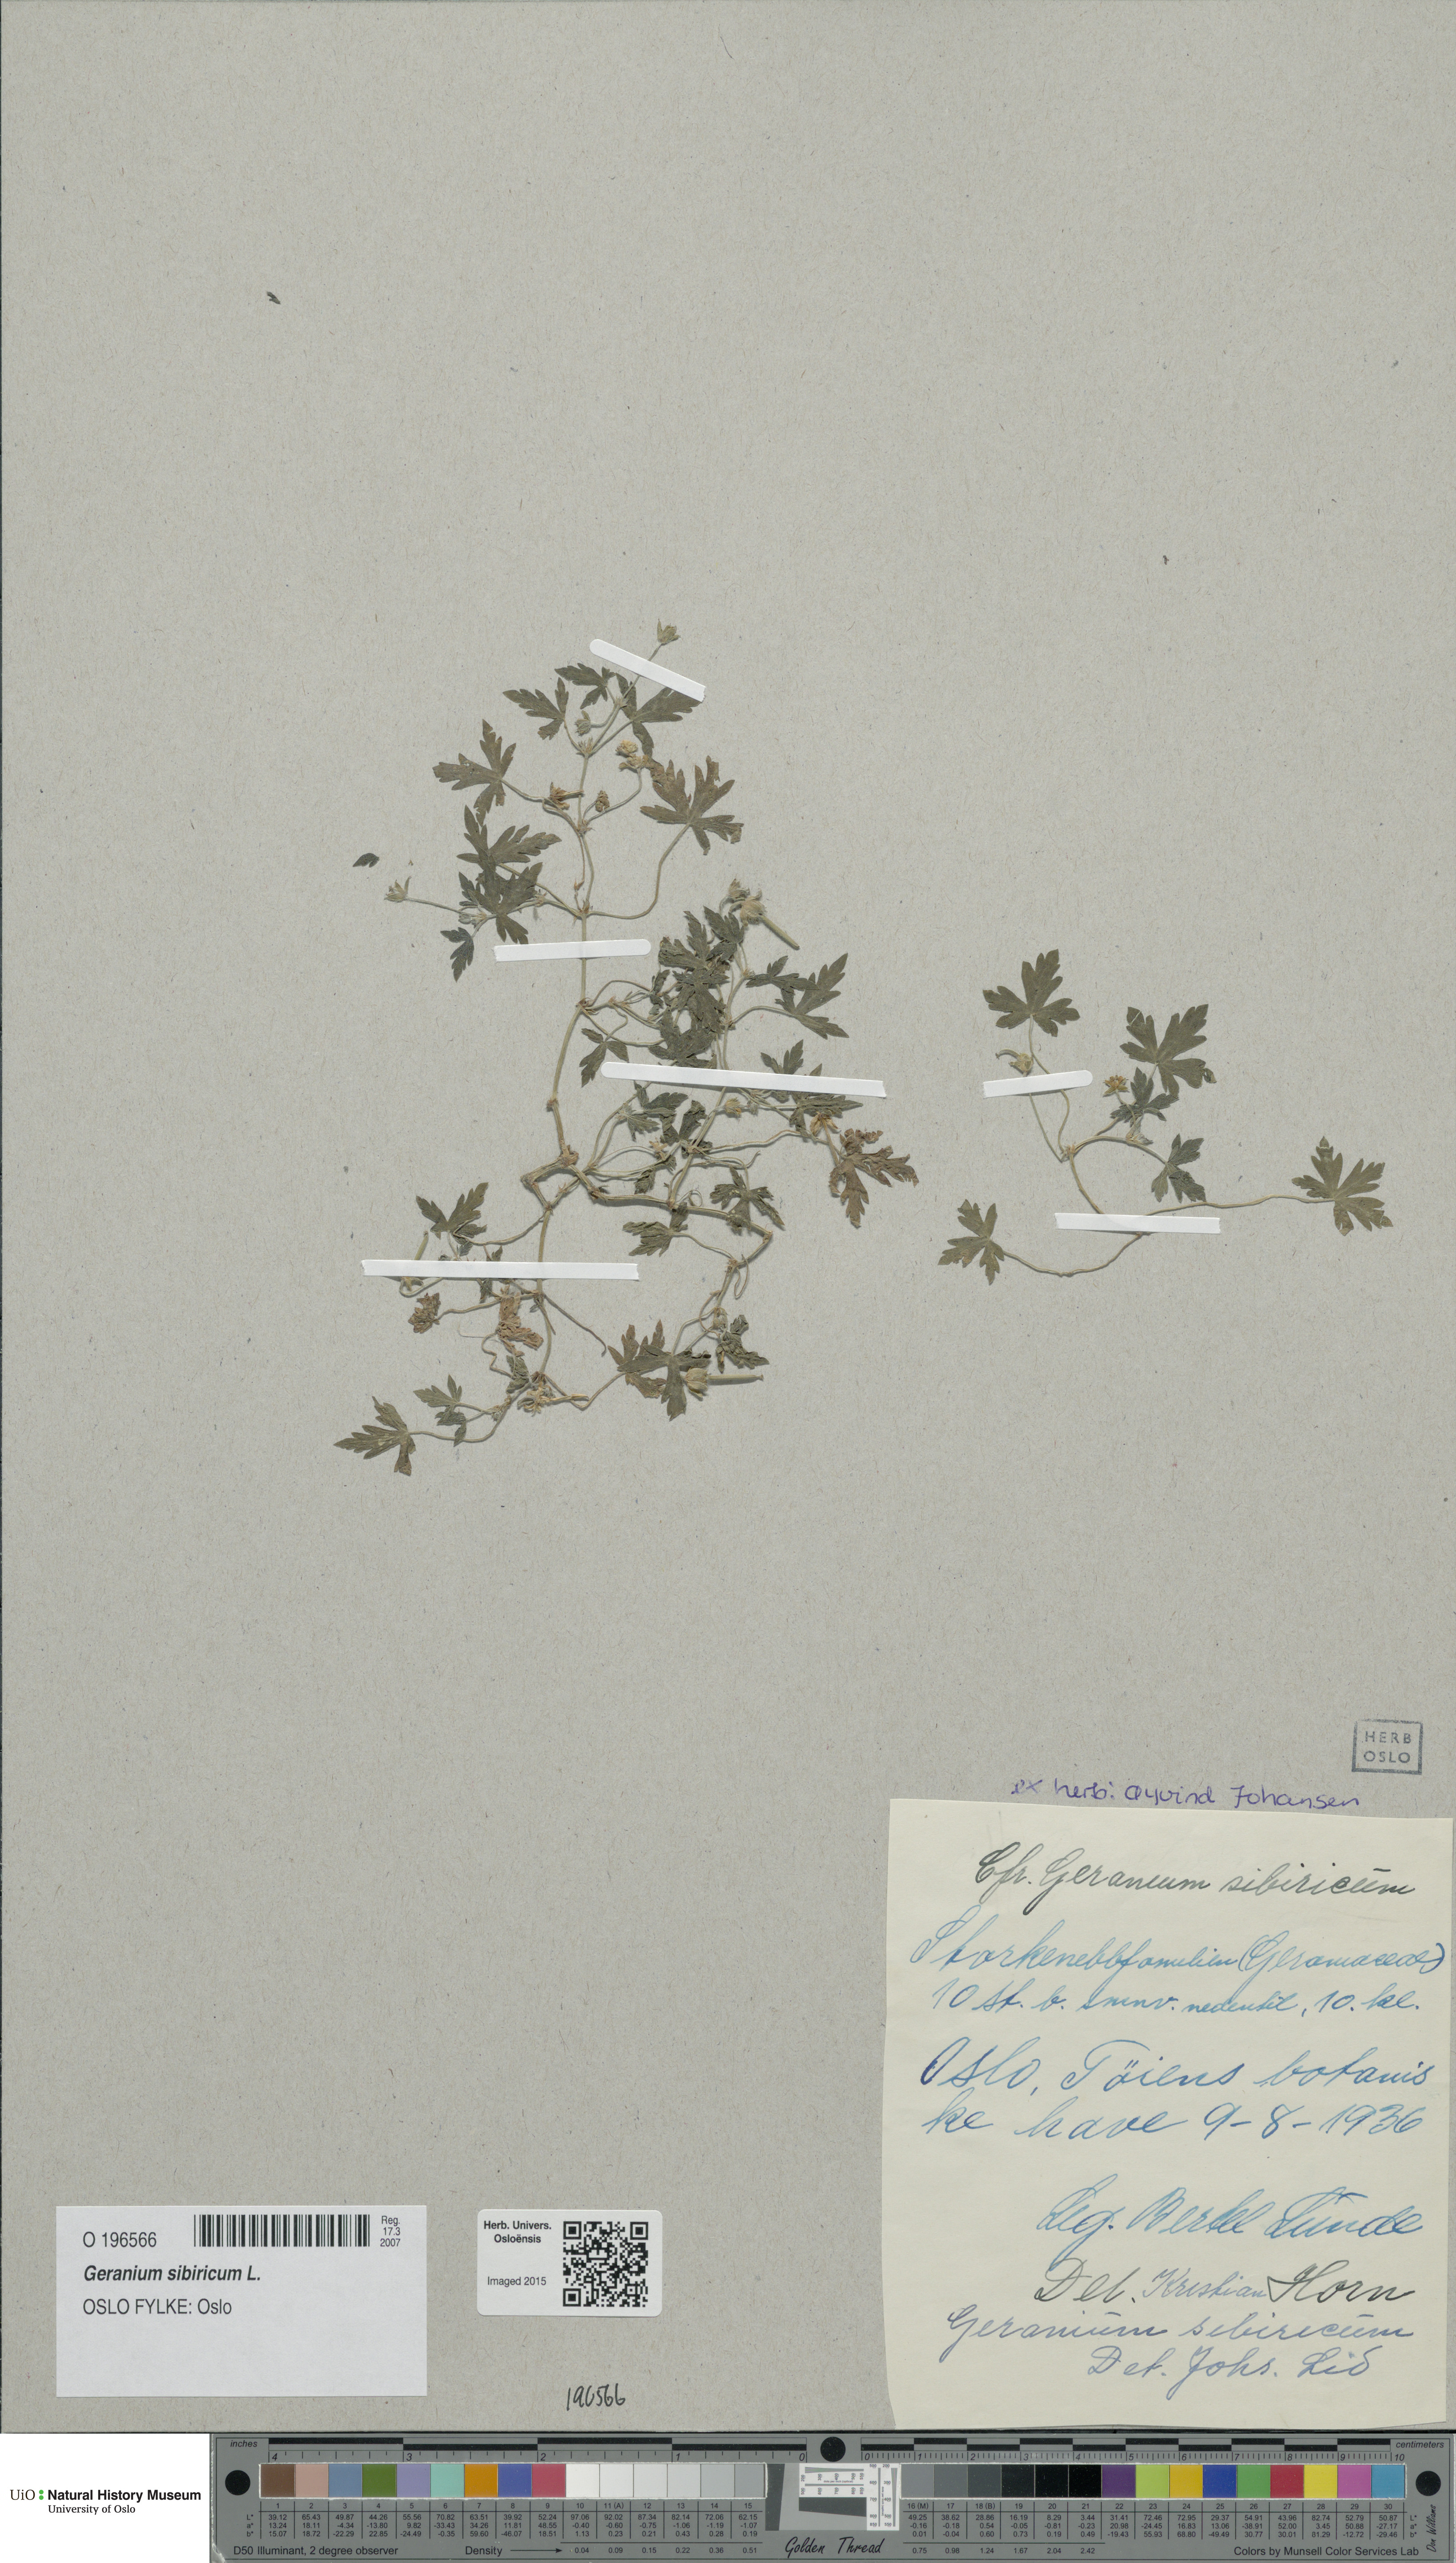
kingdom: Plantae
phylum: Tracheophyta
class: Magnoliopsida
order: Geraniales
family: Geraniaceae
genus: Geranium
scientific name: Geranium sibiricum
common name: Siberian crane's-bill
